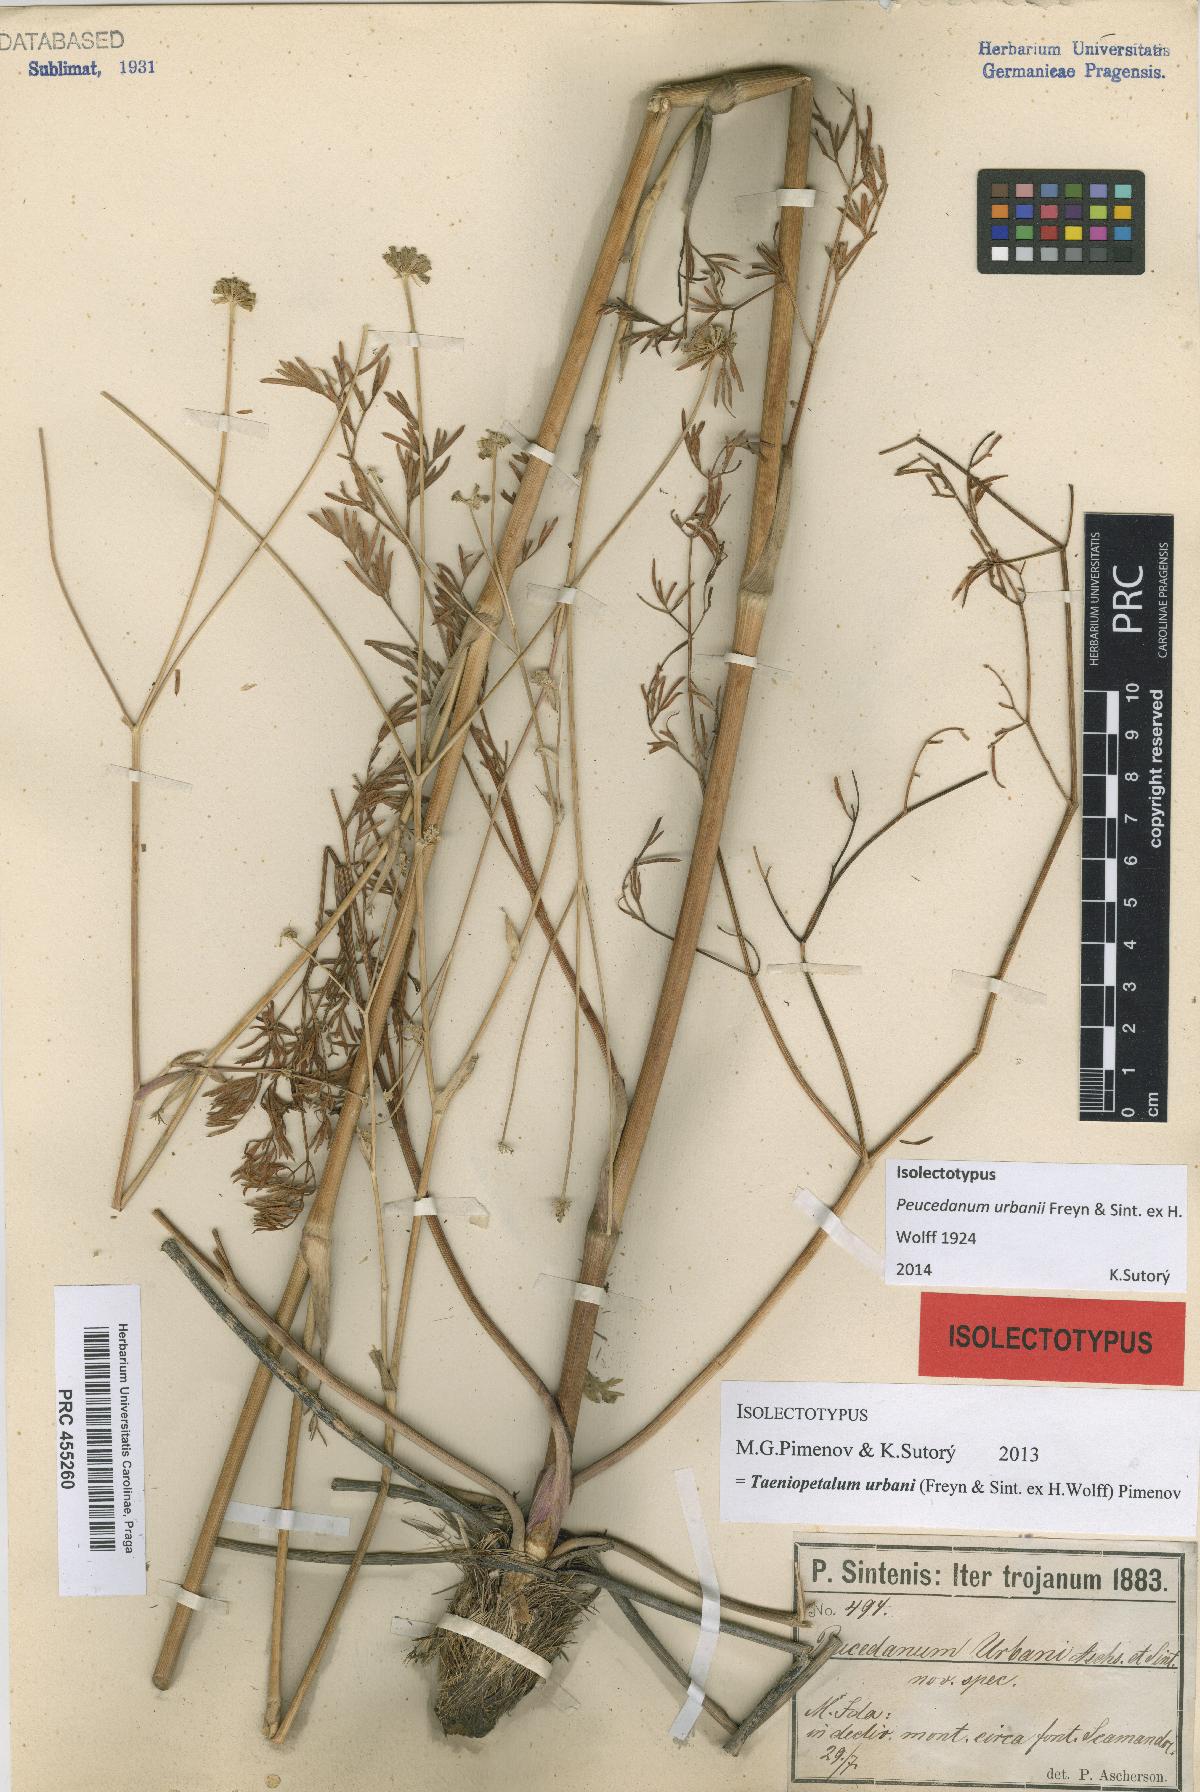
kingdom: Plantae
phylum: Tracheophyta
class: Magnoliopsida
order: Apiales
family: Apiaceae
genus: Taeniopetalum
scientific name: Taeniopetalum urbani
